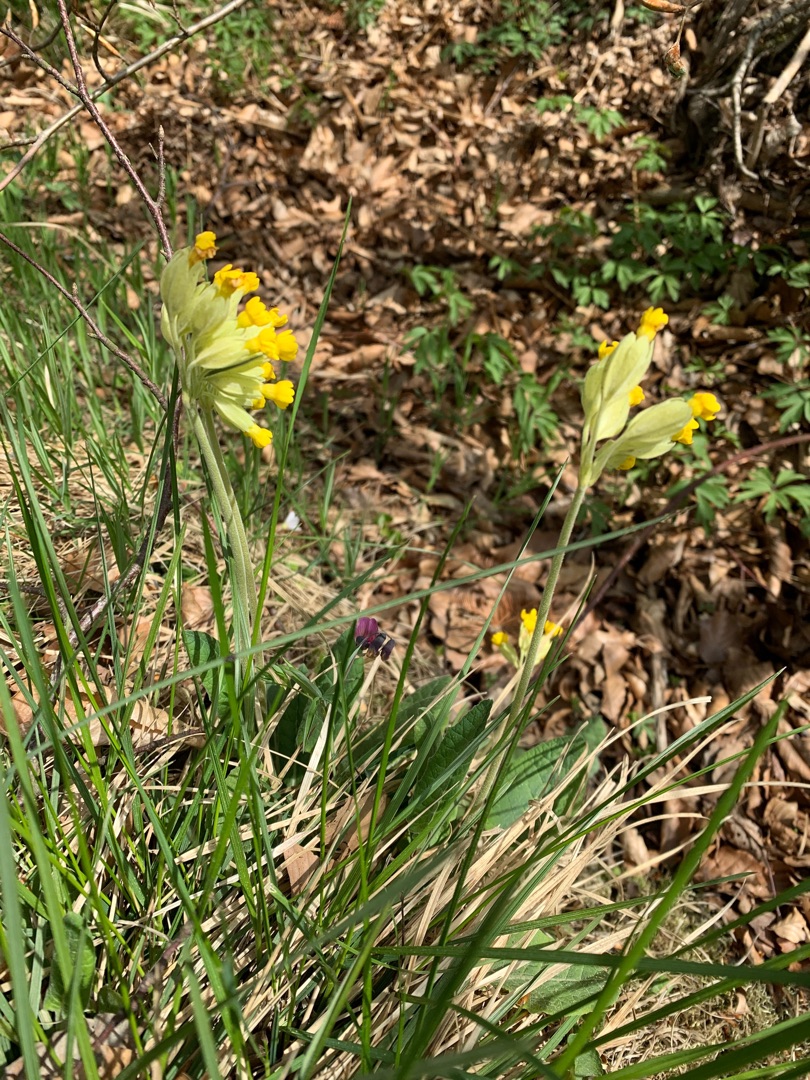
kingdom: Plantae
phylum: Tracheophyta
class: Magnoliopsida
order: Ericales
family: Primulaceae
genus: Primula
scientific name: Primula veris
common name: Hulkravet kodriver
